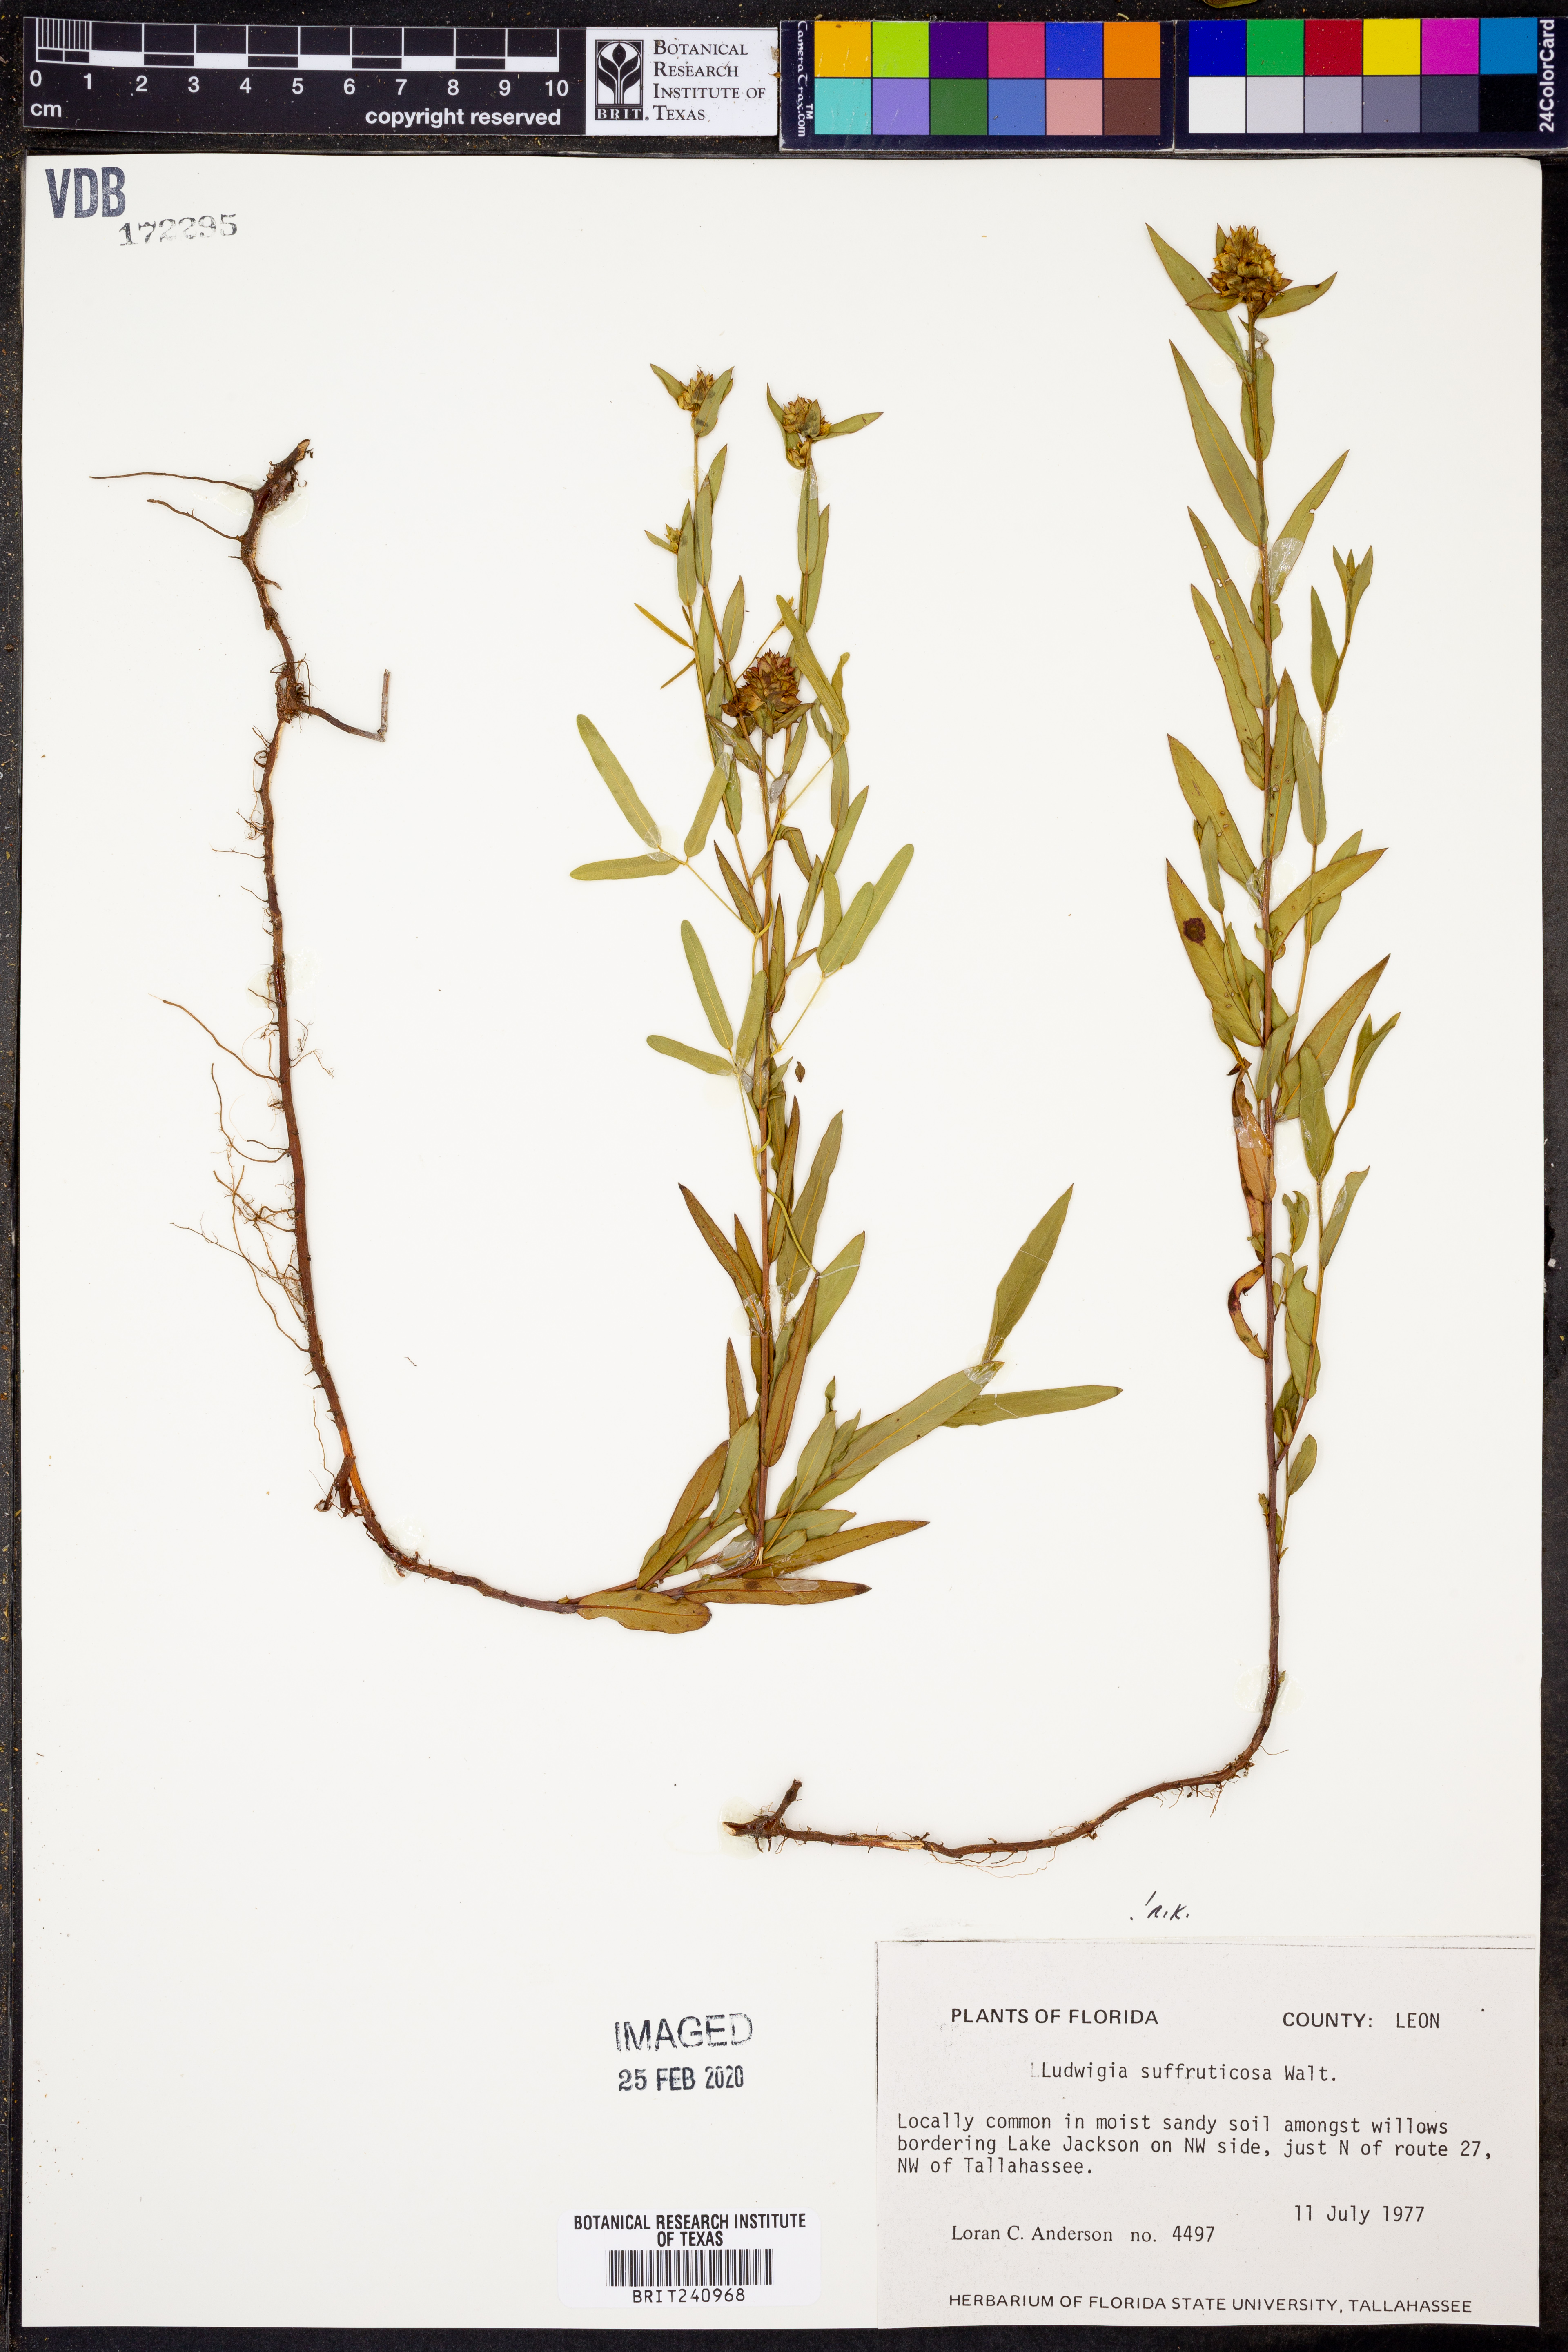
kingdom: Plantae
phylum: Tracheophyta
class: Magnoliopsida
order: Myrtales
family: Onagraceae
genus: Ludwigia
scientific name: Ludwigia suffruticosa
